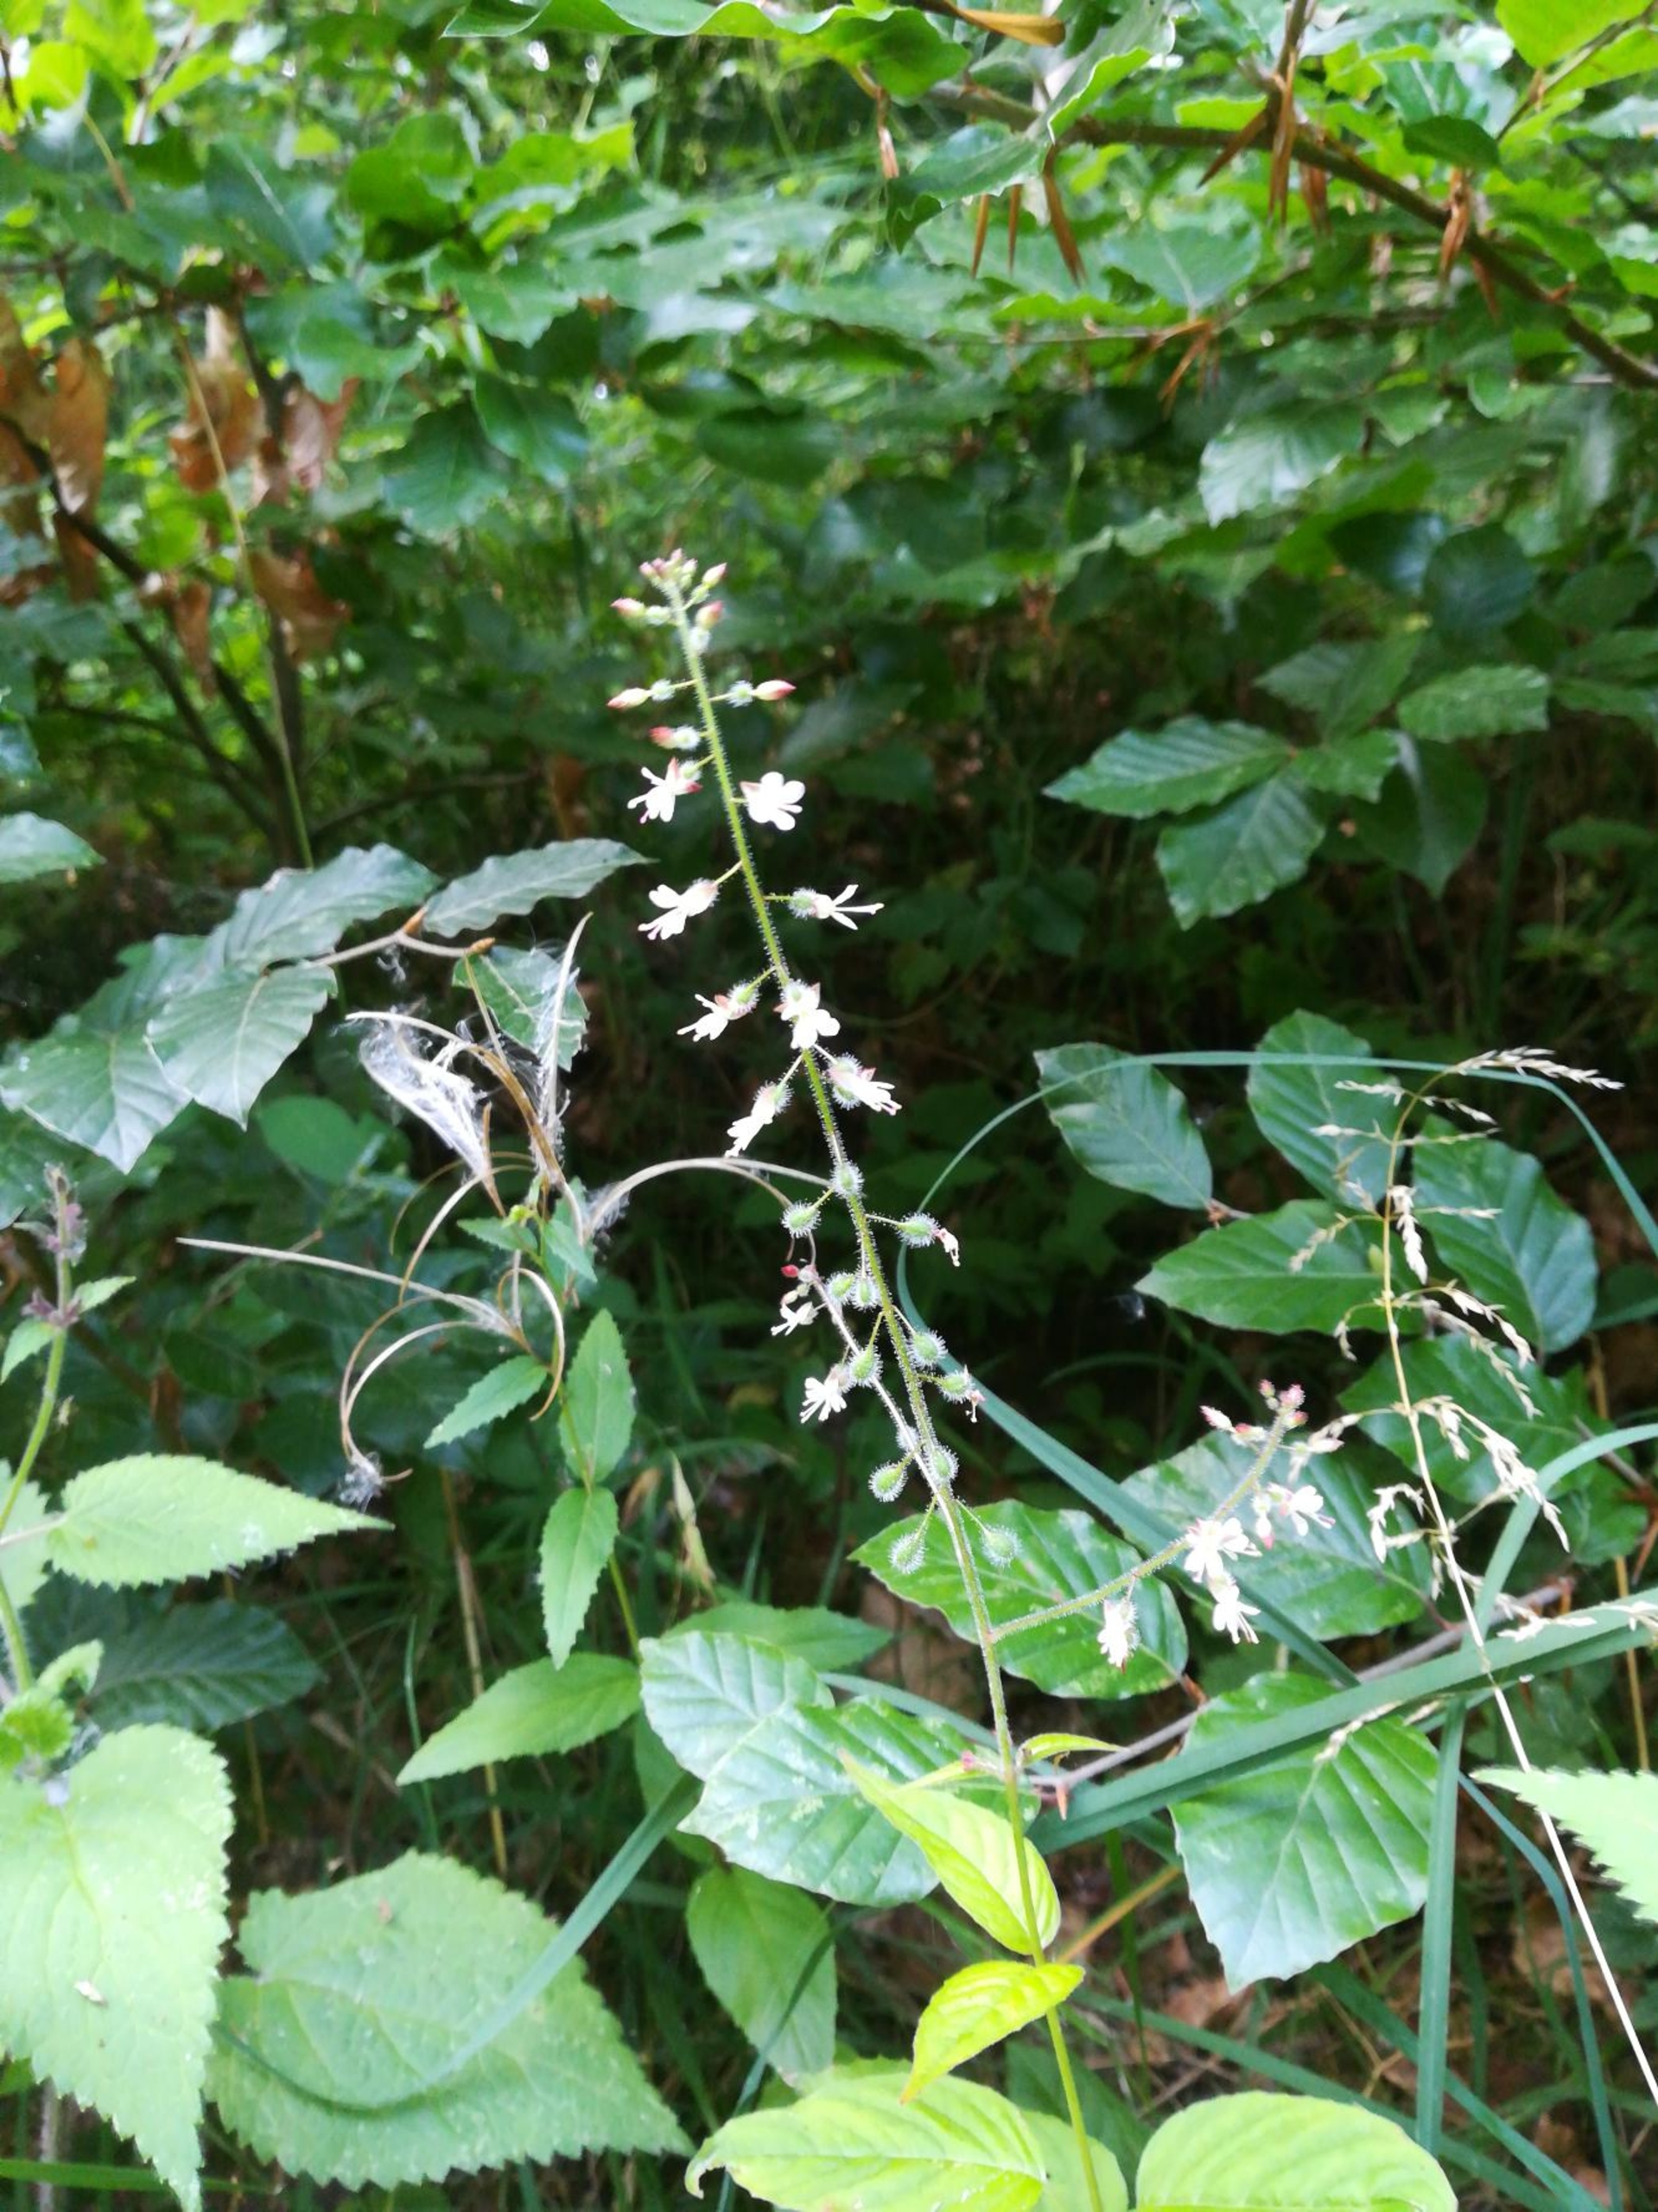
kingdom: Plantae
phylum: Tracheophyta
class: Magnoliopsida
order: Myrtales
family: Onagraceae
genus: Circaea
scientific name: Circaea lutetiana
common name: Dunet steffensurt
